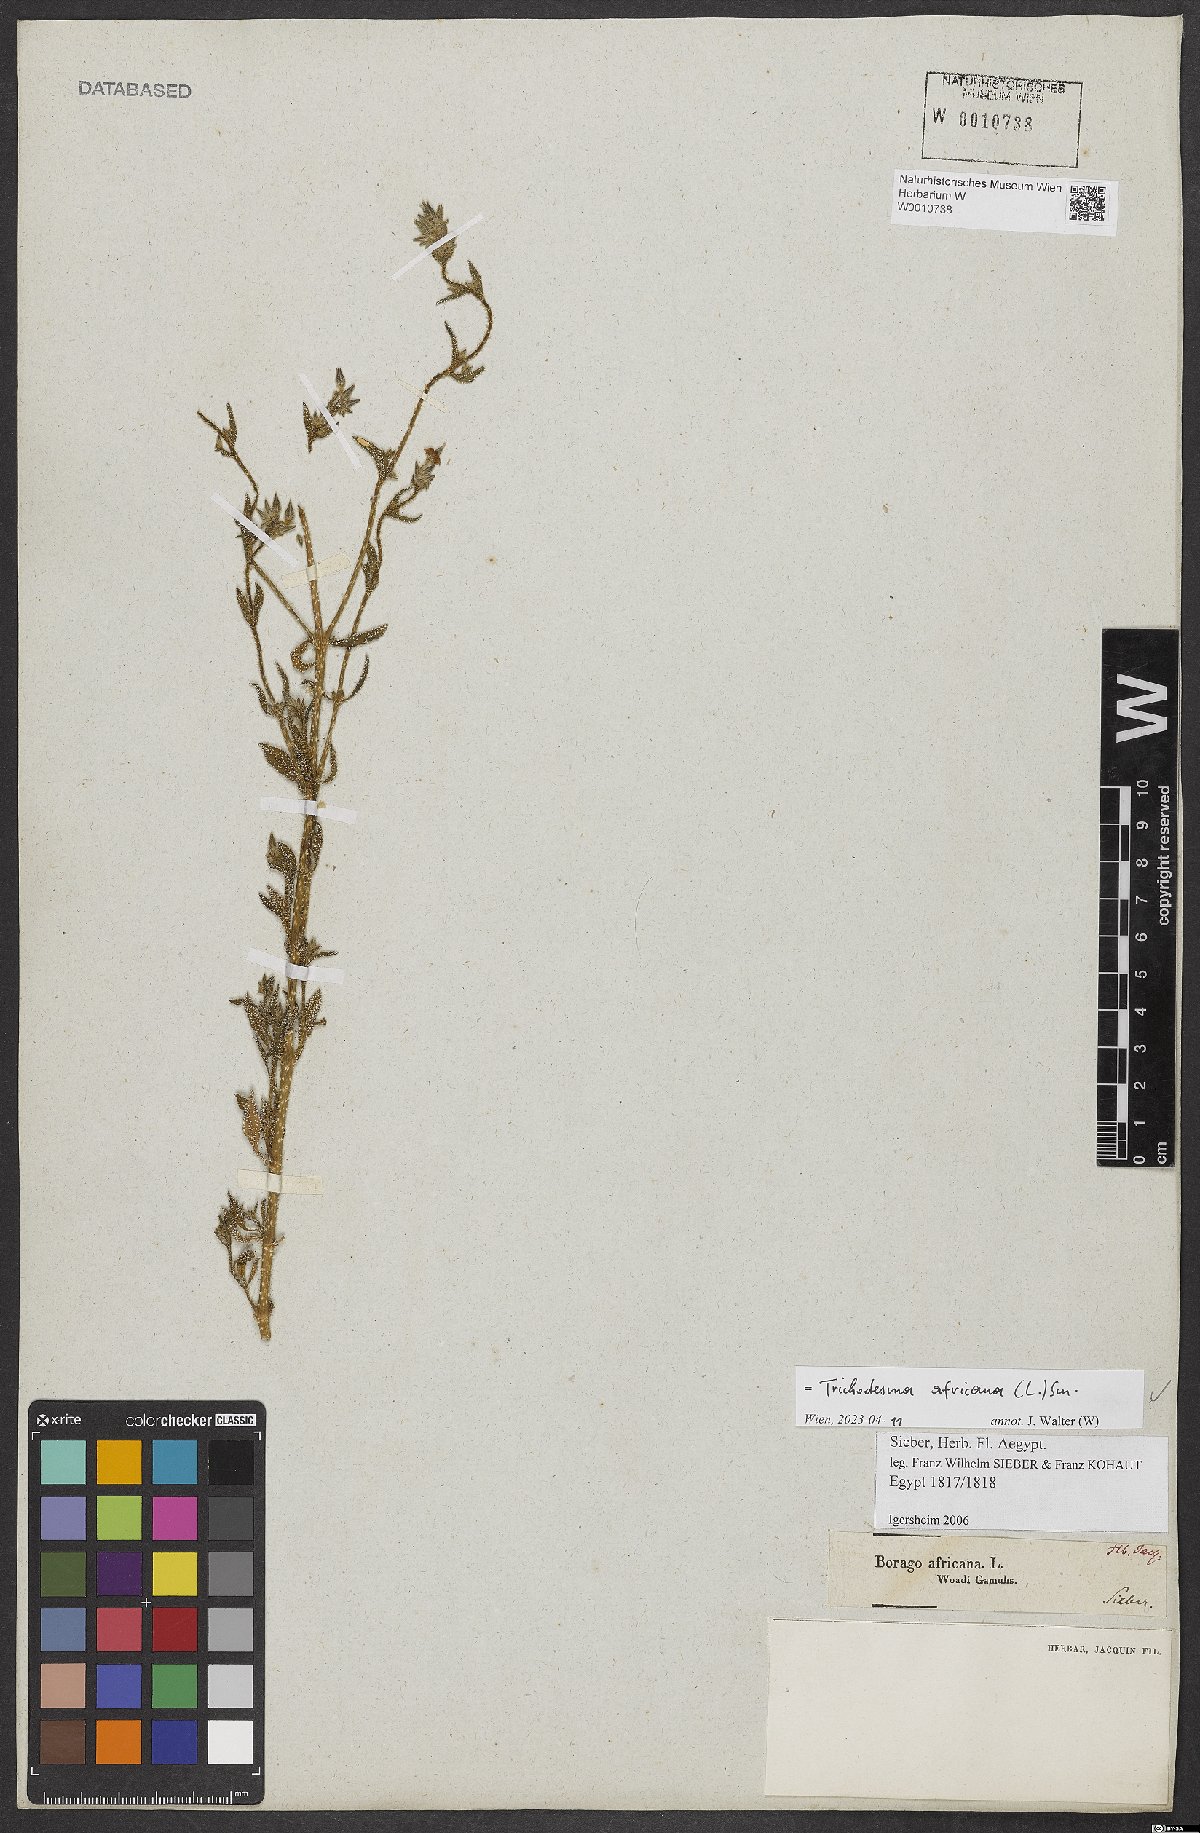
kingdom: Plantae
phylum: Tracheophyta
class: Magnoliopsida
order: Boraginales
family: Boraginaceae
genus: Trichodesma
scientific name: Trichodesma africanum
